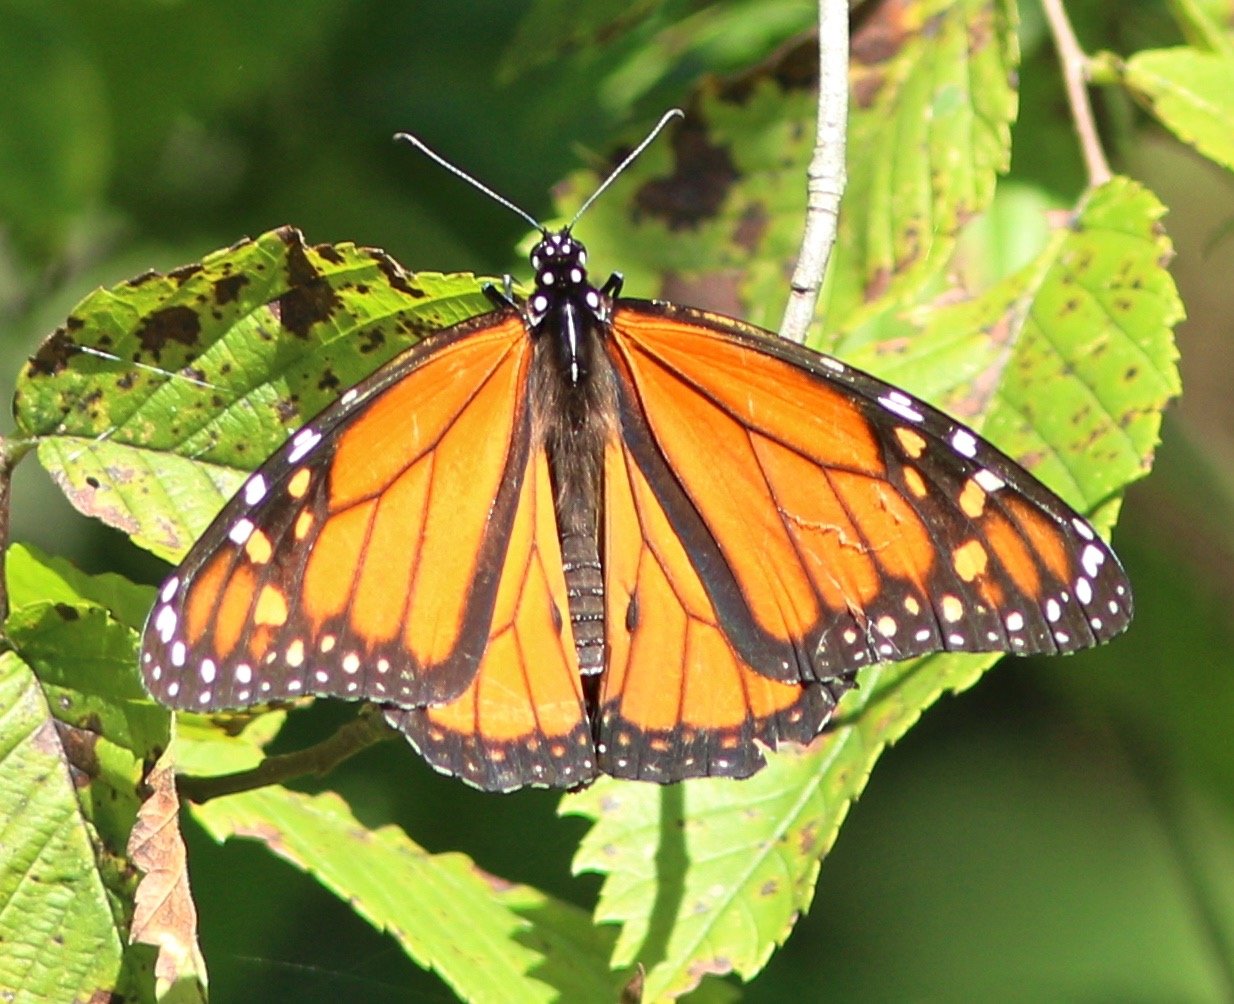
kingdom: Animalia
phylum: Arthropoda
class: Insecta
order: Lepidoptera
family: Nymphalidae
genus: Danaus
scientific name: Danaus plexippus
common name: Monarch
